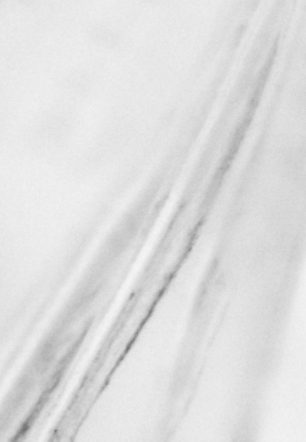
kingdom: Animalia
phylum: Chordata
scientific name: Chordata
